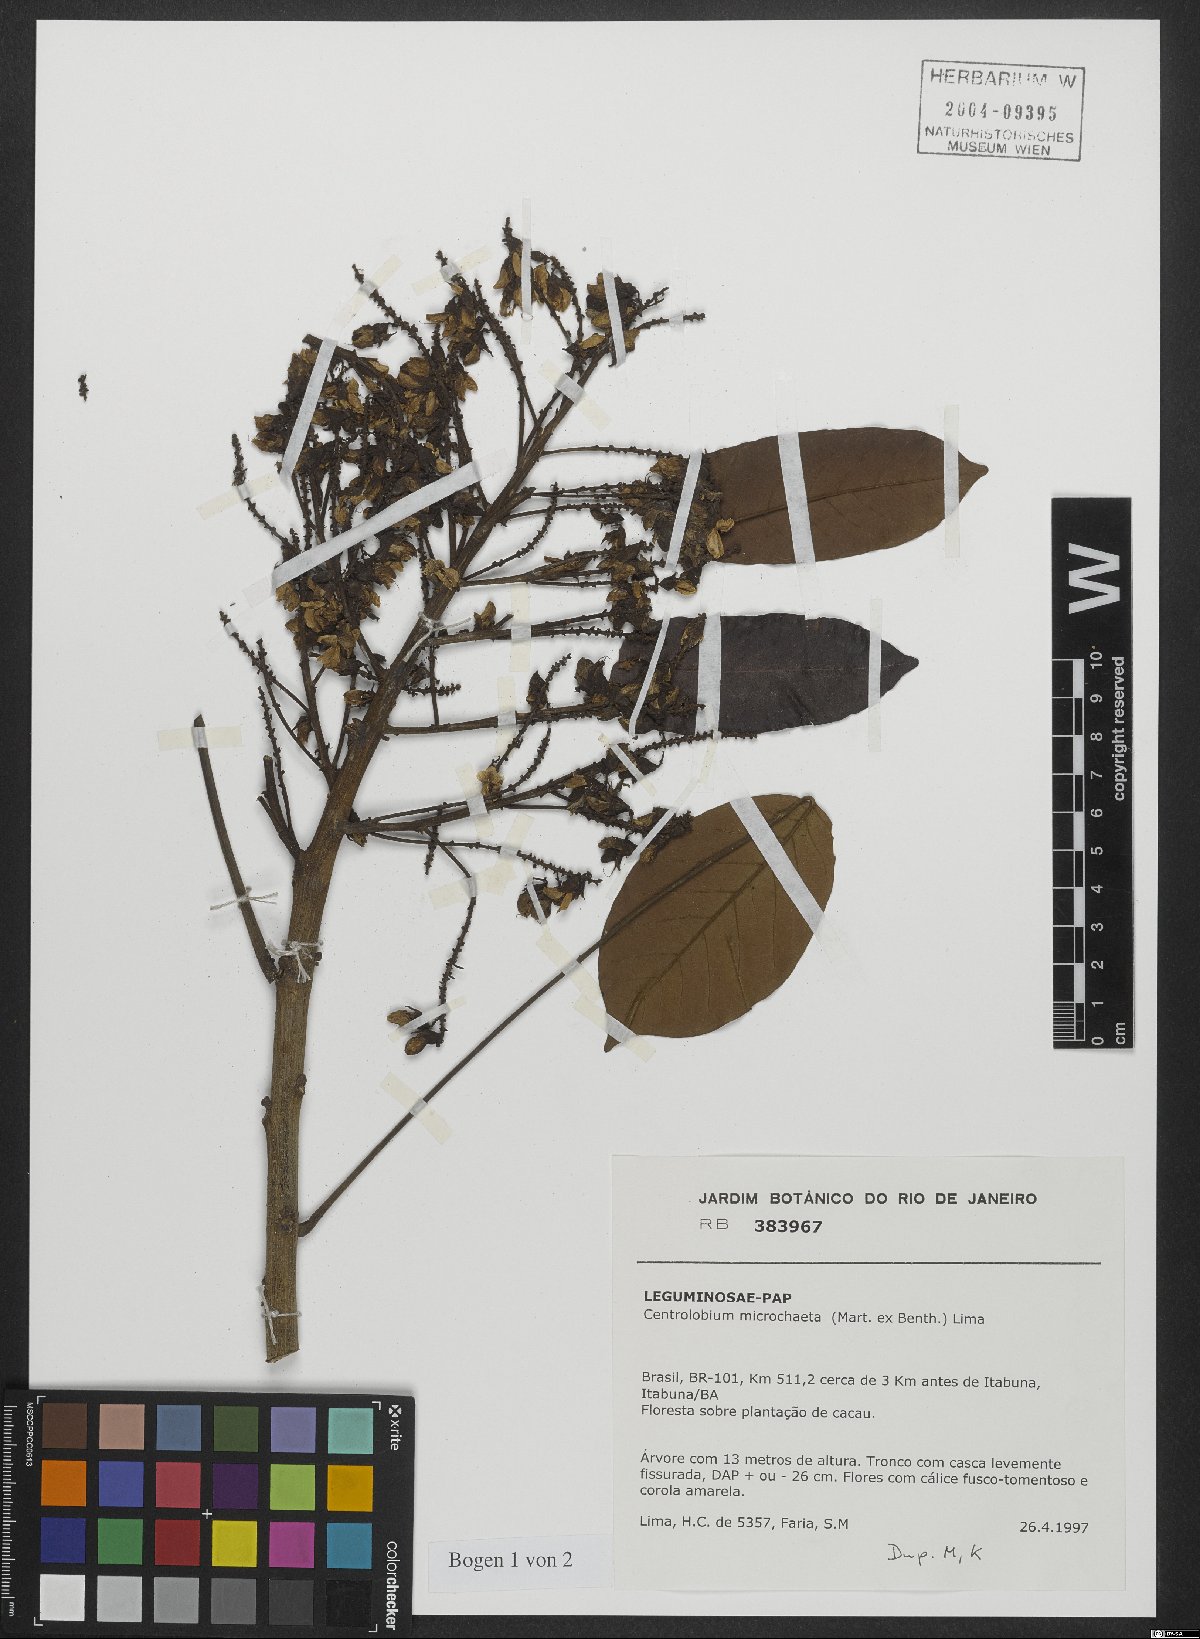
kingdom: Plantae
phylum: Tracheophyta
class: Magnoliopsida
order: Fabales
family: Fabaceae
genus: Centrolobium
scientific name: Centrolobium microchaete
